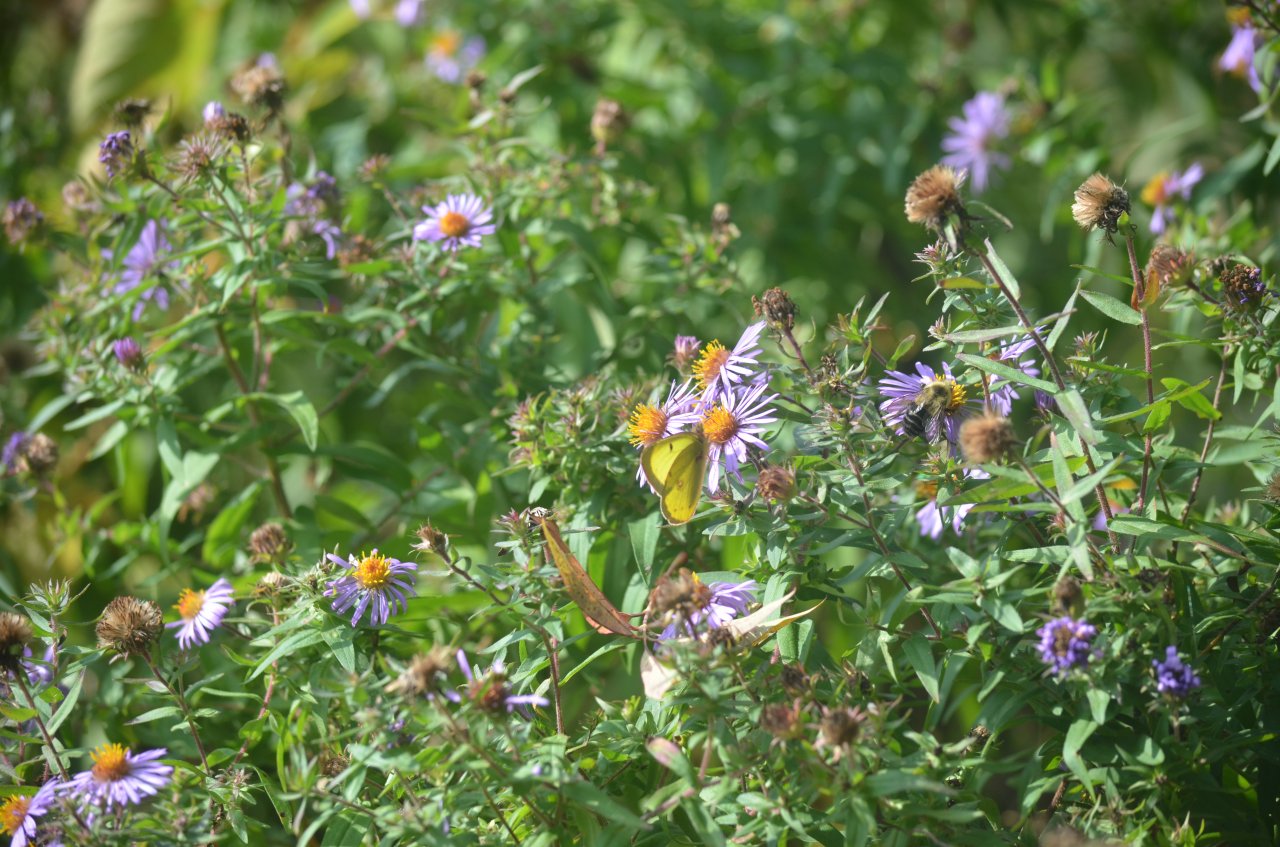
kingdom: Animalia
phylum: Arthropoda
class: Insecta
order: Lepidoptera
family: Pieridae
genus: Colias
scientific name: Colias philodice
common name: Clouded Sulphur
